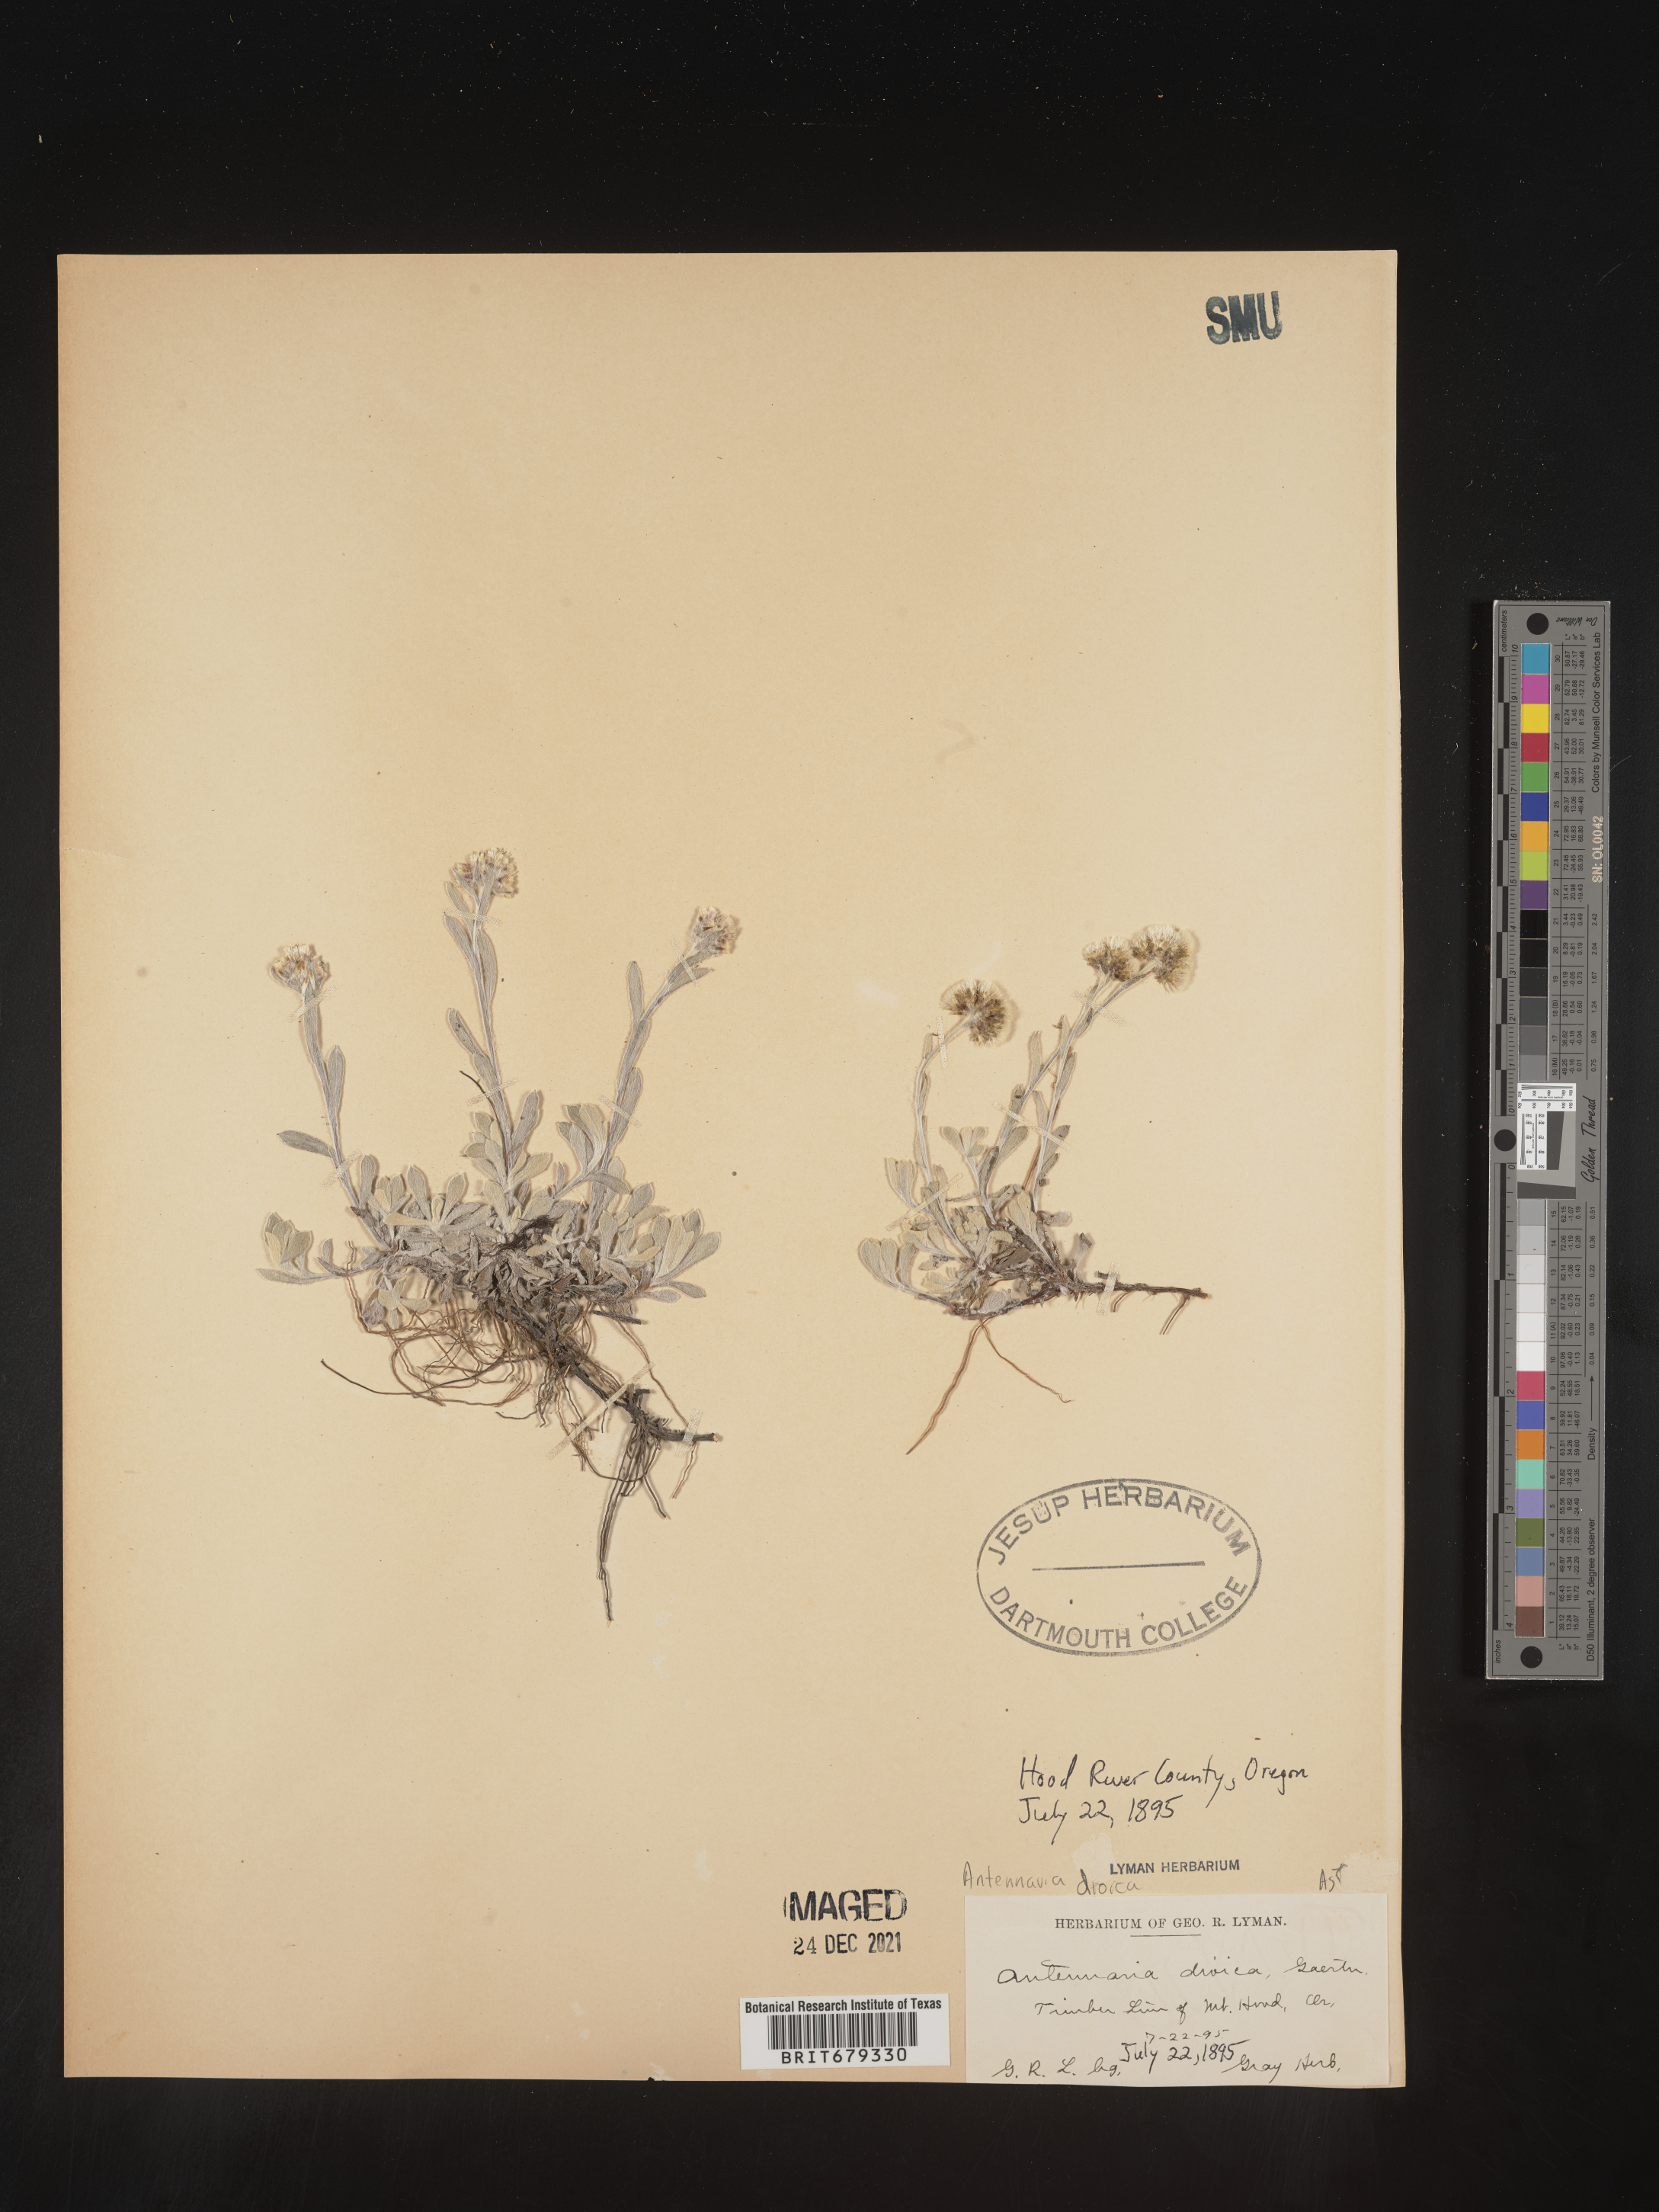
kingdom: Plantae
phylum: Tracheophyta
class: Magnoliopsida
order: Asterales
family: Asteraceae
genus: Antennaria
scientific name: Antennaria dioica
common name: Mountain everlasting
